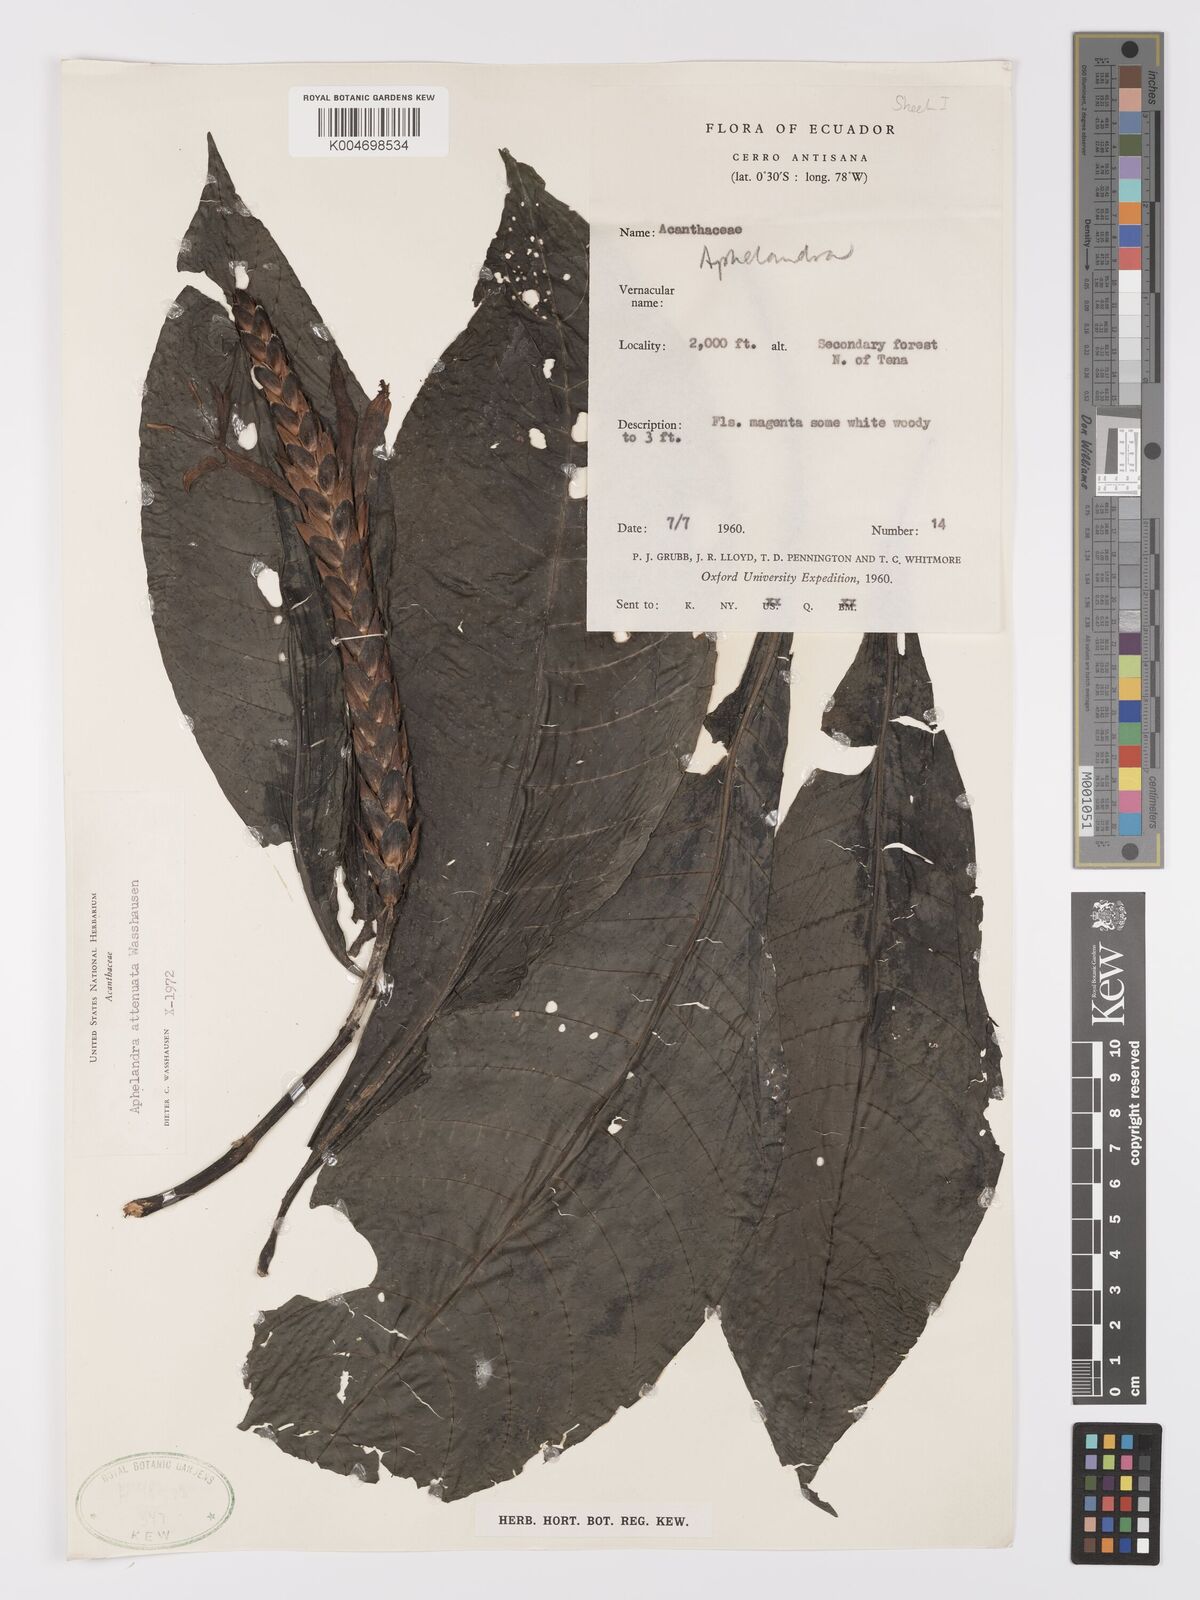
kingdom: Plantae
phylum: Tracheophyta
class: Magnoliopsida
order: Lamiales
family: Acanthaceae
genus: Aphelandra
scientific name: Aphelandra attenuata
